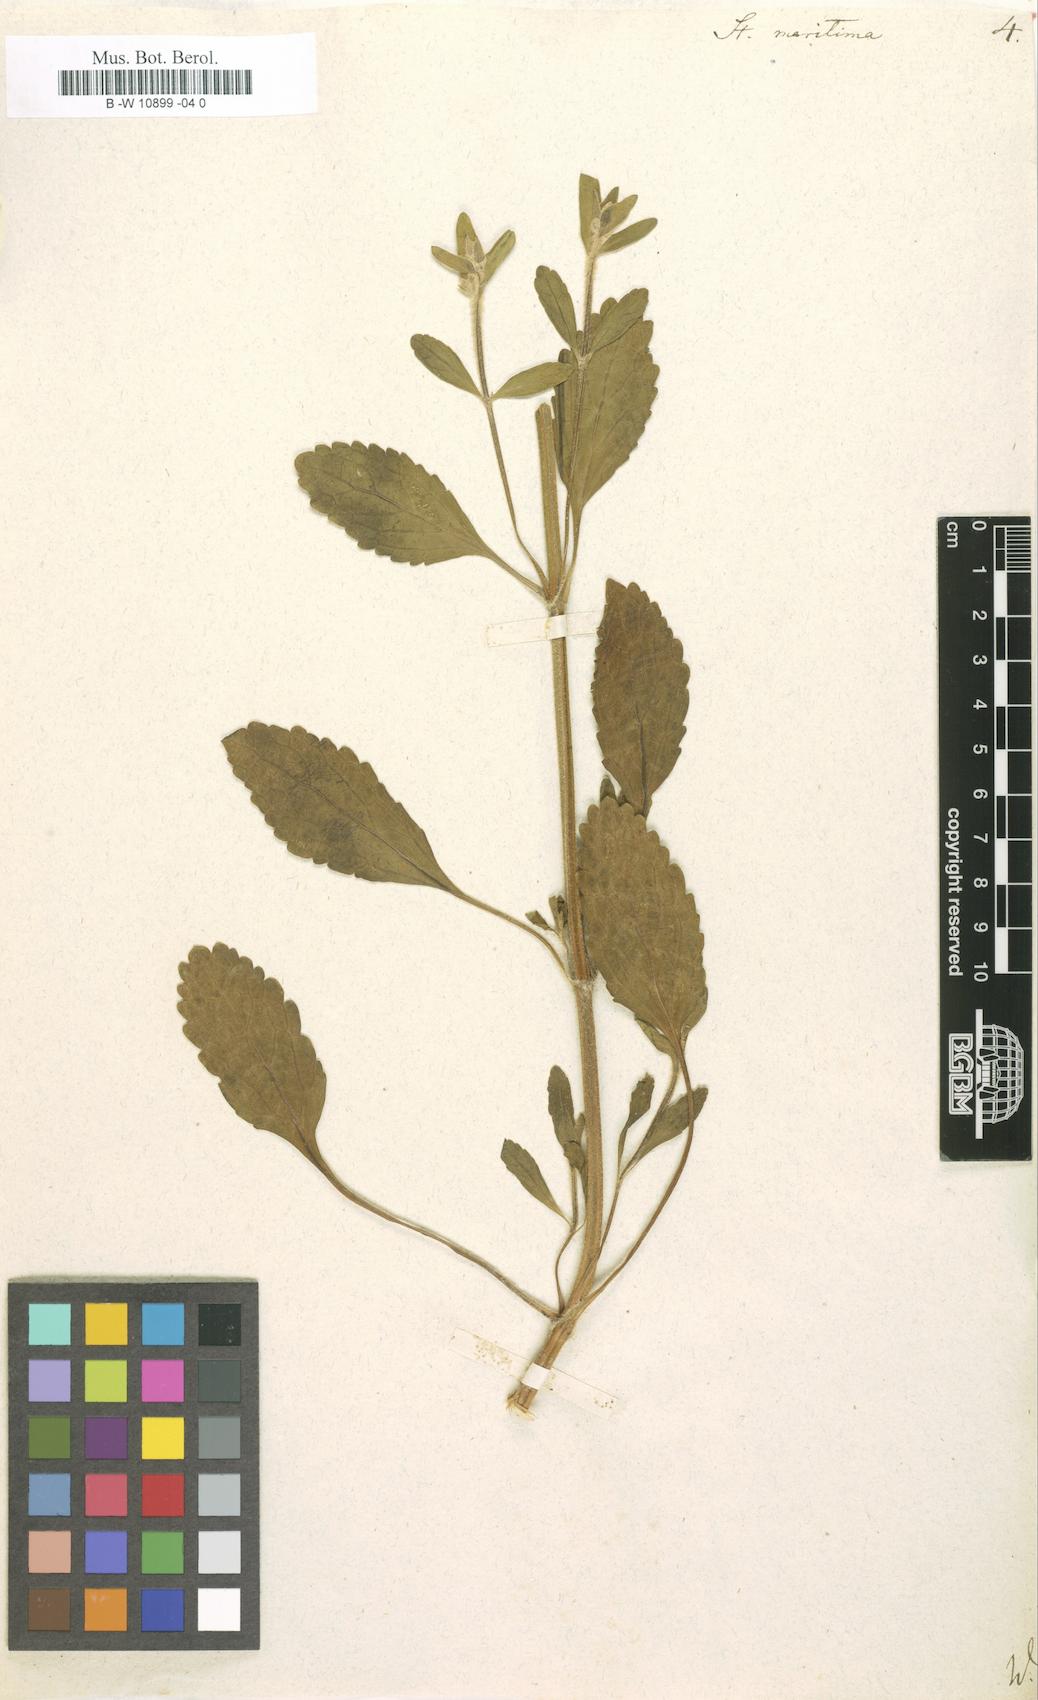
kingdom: Plantae
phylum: Tracheophyta
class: Magnoliopsida
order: Lamiales
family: Lamiaceae
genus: Stachys
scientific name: Stachys maritima
